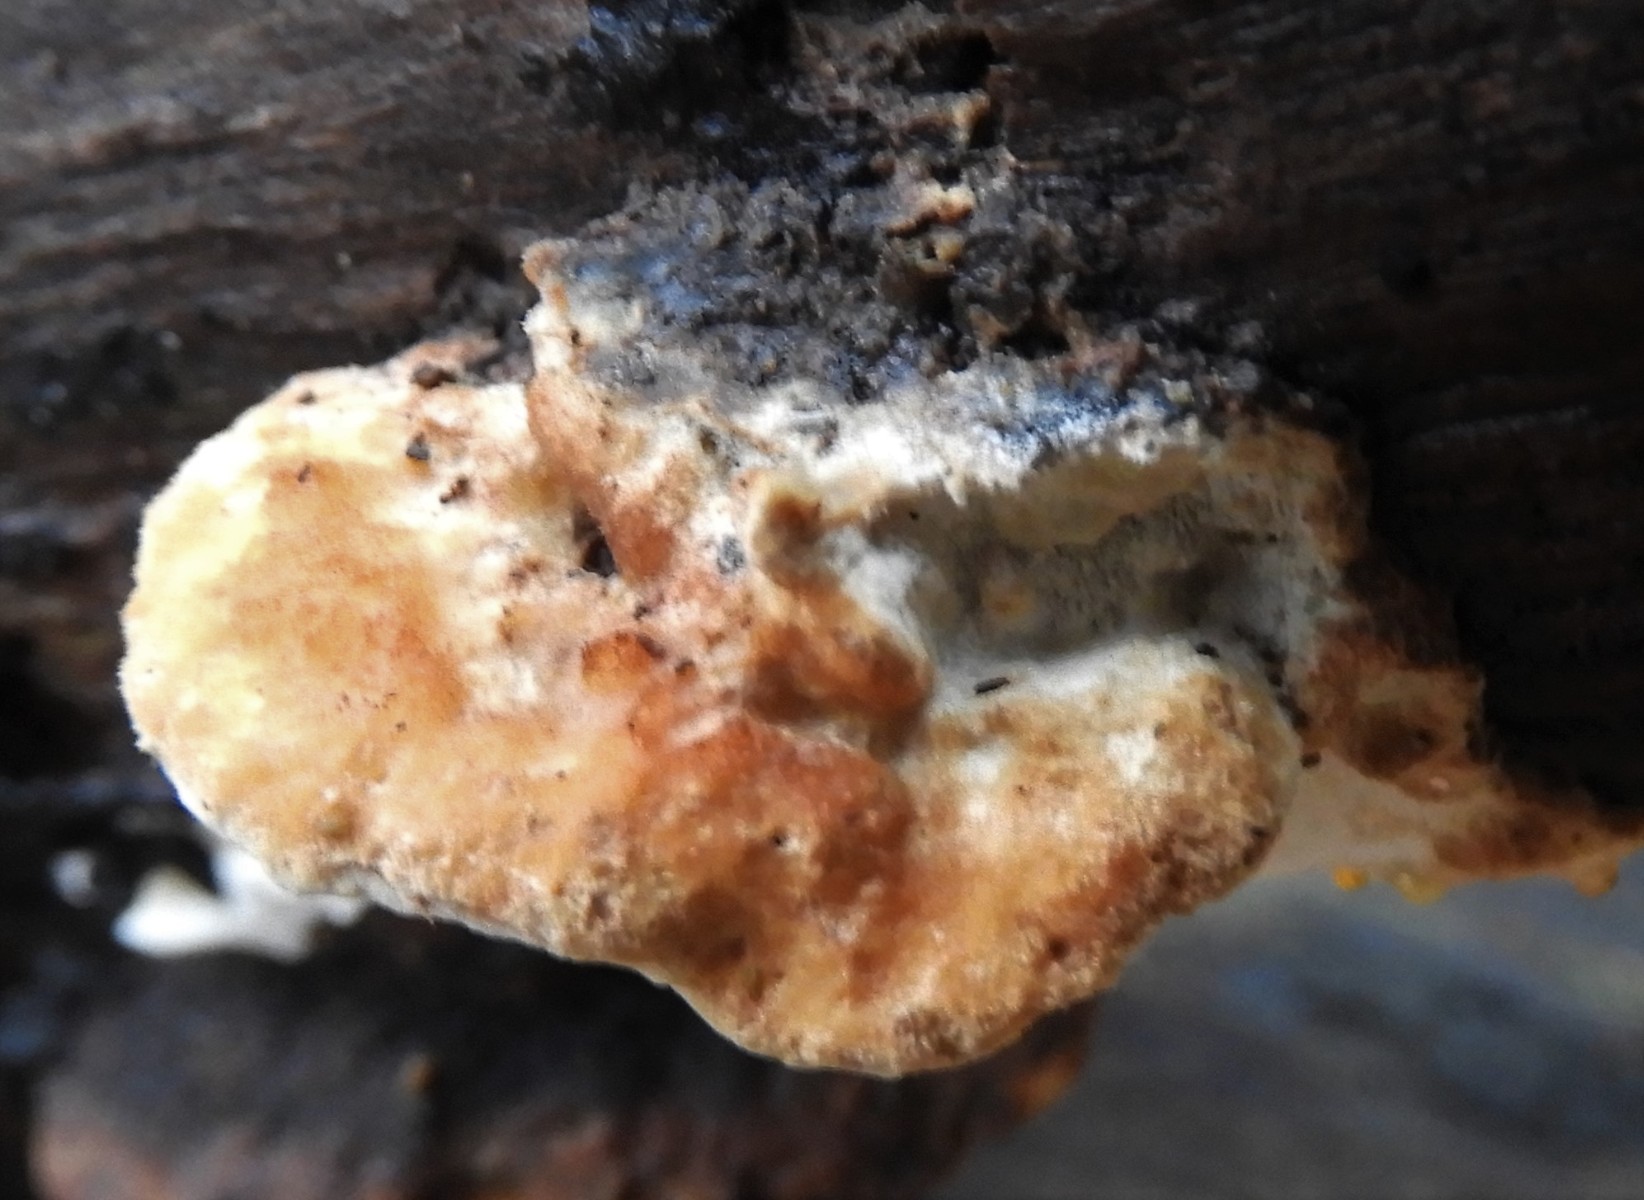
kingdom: Fungi
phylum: Basidiomycota
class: Agaricomycetes
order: Polyporales
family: Incrustoporiaceae
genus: Skeletocutis
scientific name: Skeletocutis nemoralis
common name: stor krystalporesvamp
